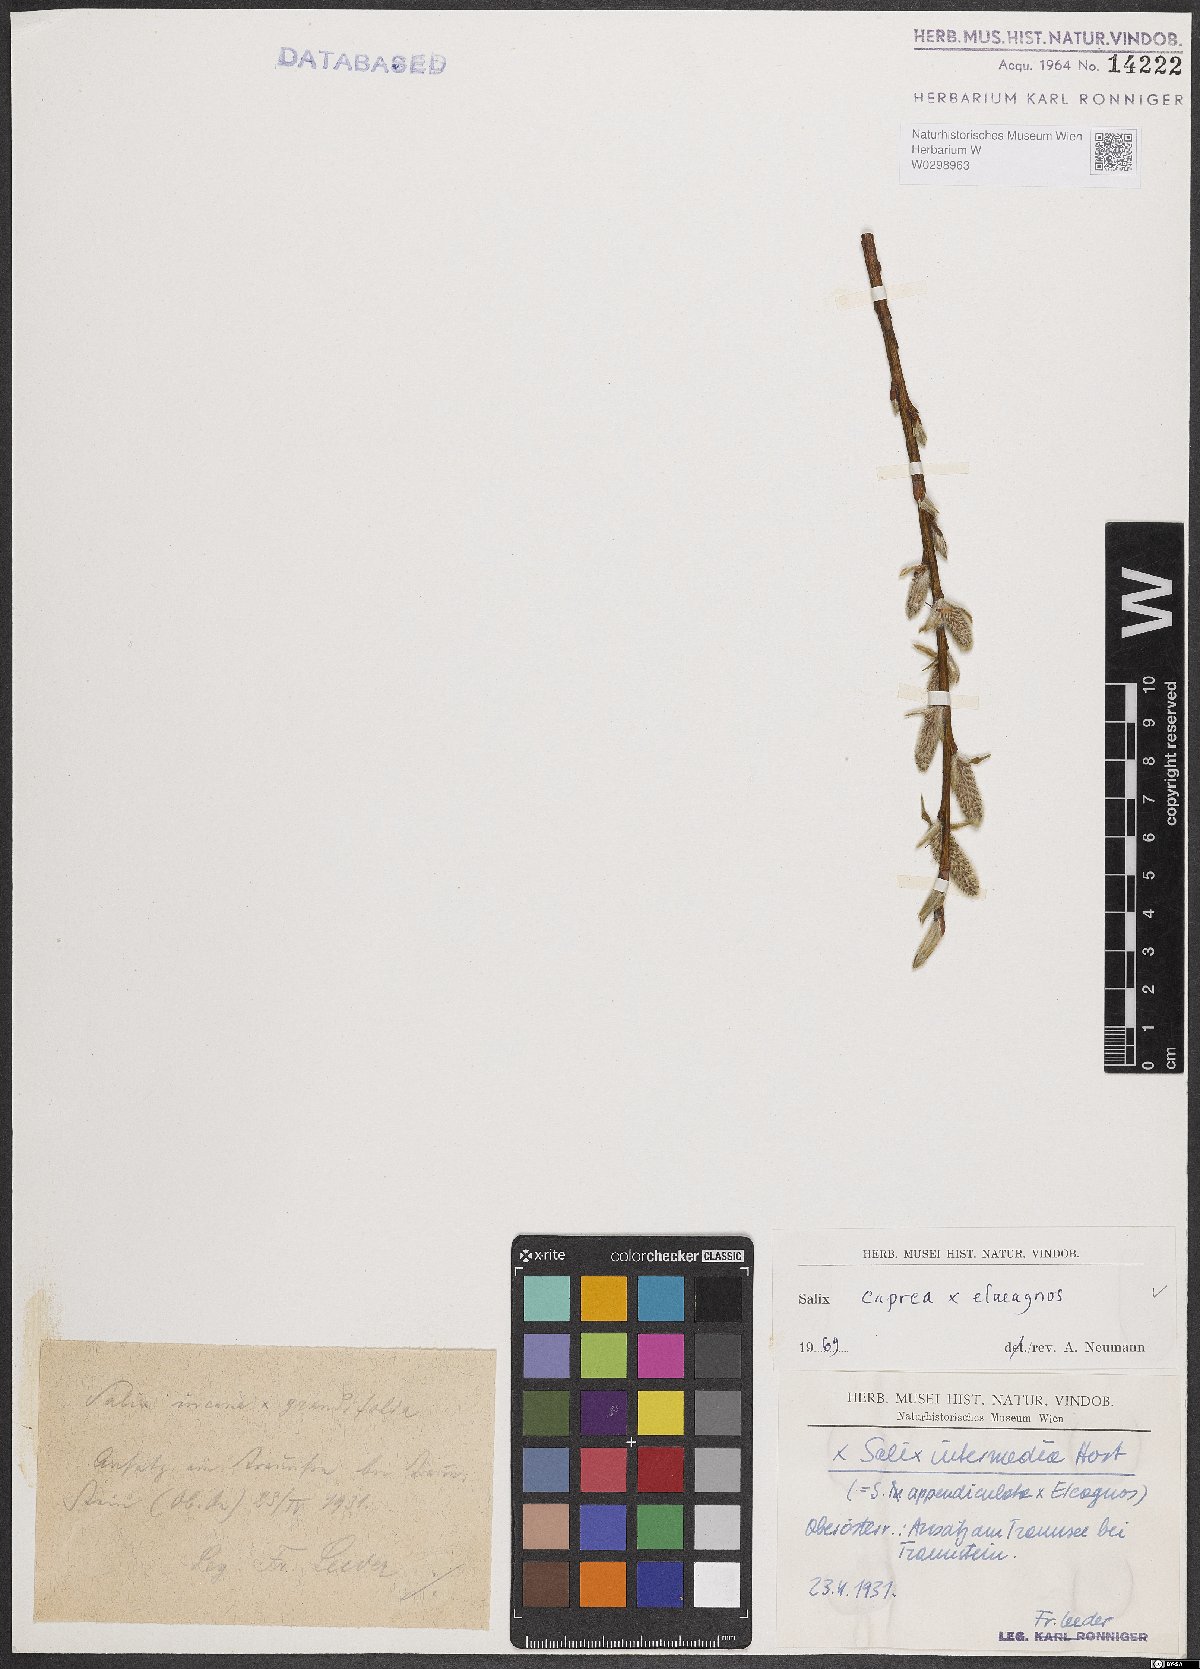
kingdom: Plantae
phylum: Tracheophyta
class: Magnoliopsida
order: Malpighiales
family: Salicaceae
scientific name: Salicaceae
